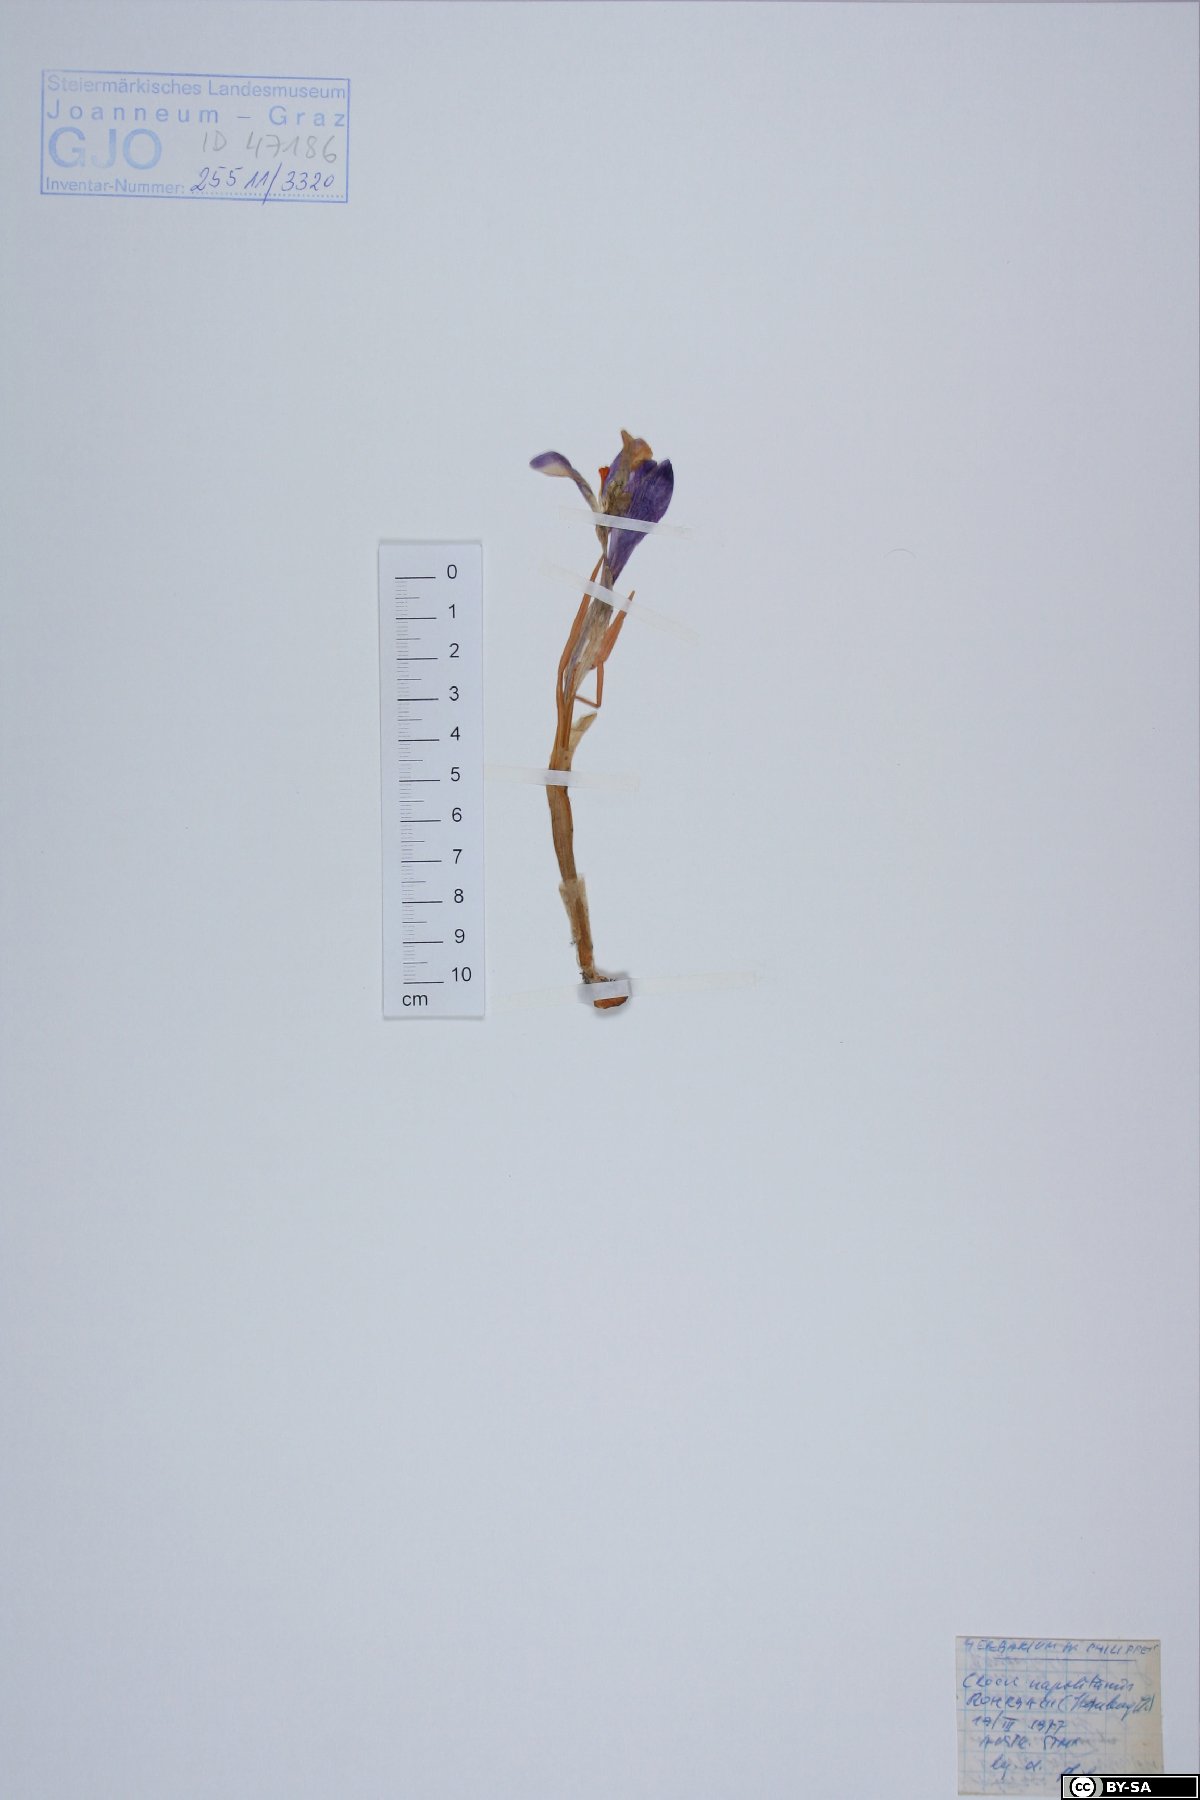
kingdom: Plantae
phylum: Tracheophyta
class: Liliopsida
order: Asparagales
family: Iridaceae
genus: Crocus
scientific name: Crocus variegatus
